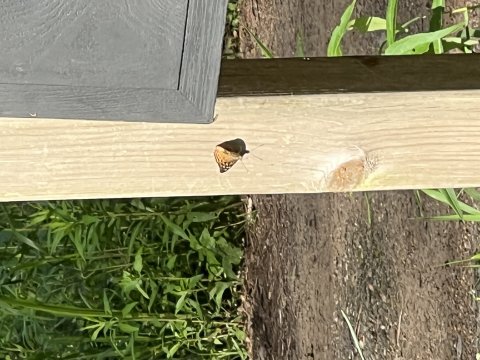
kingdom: Animalia
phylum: Arthropoda
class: Insecta
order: Lepidoptera
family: Nymphalidae
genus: Asterocampa
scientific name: Asterocampa celtis
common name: Hackberry Emperor
